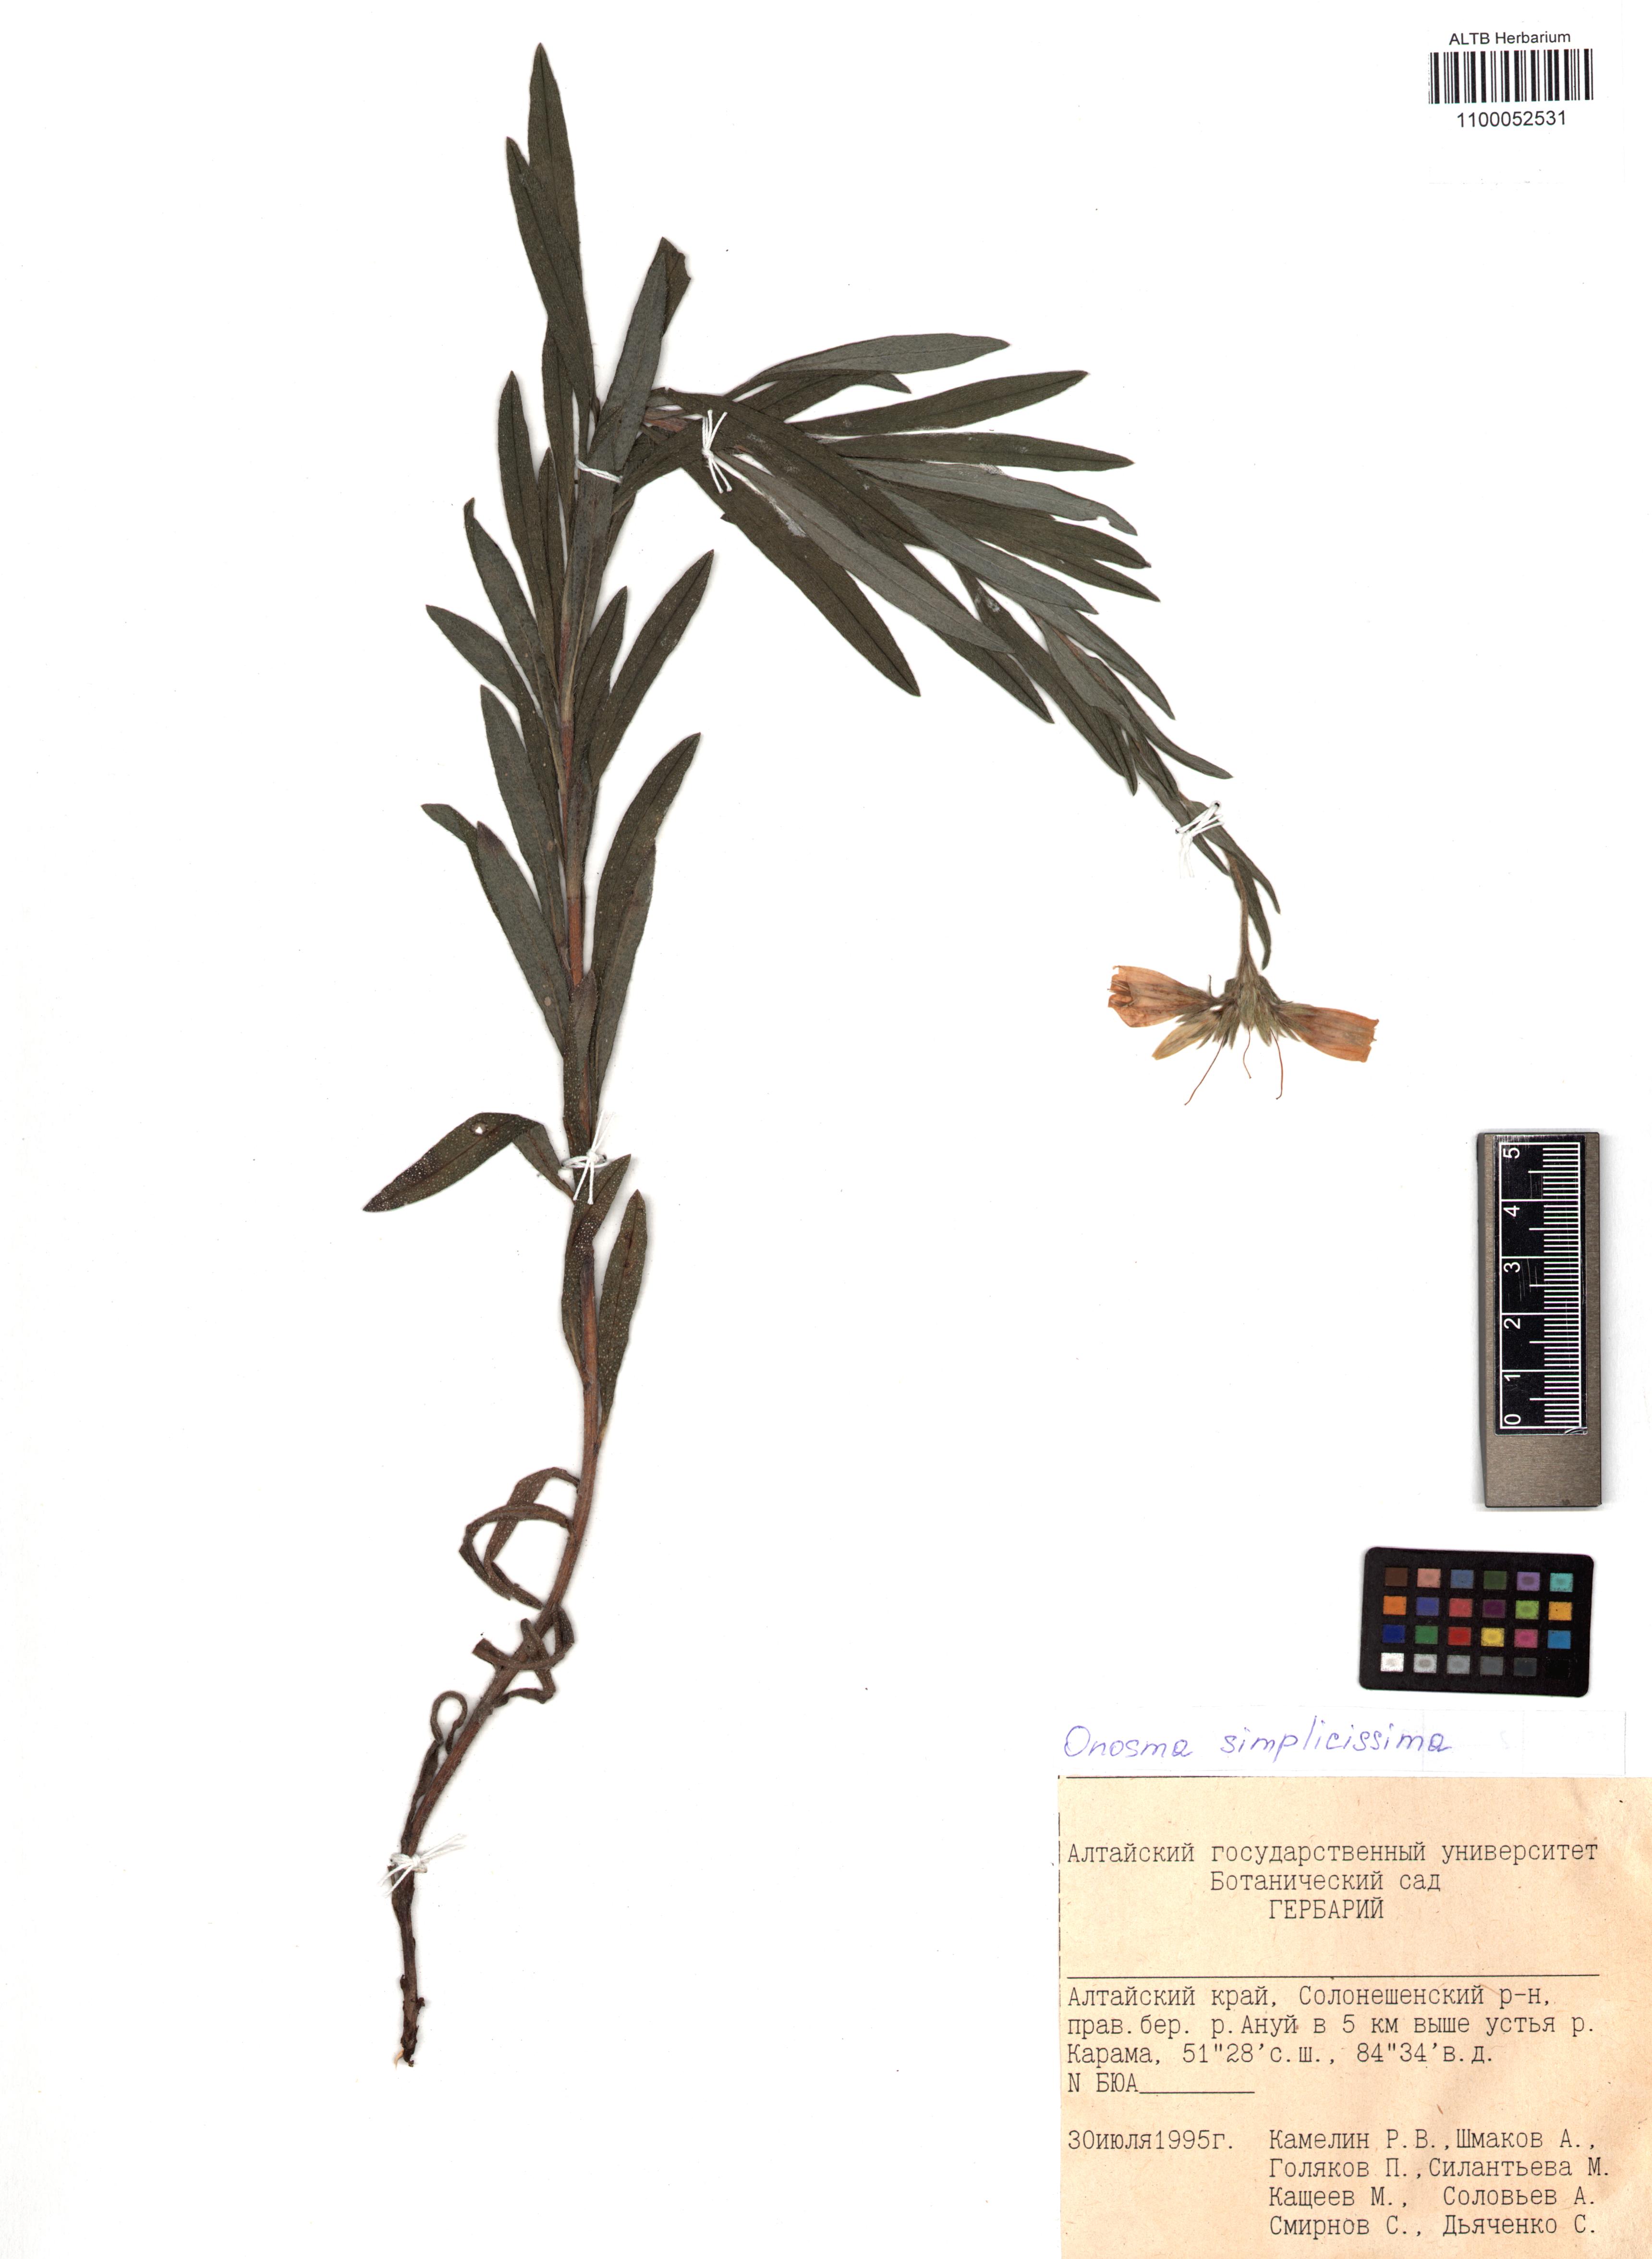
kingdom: Plantae
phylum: Tracheophyta
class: Magnoliopsida
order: Boraginales
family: Boraginaceae
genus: Onosma
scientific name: Onosma simplicissima
